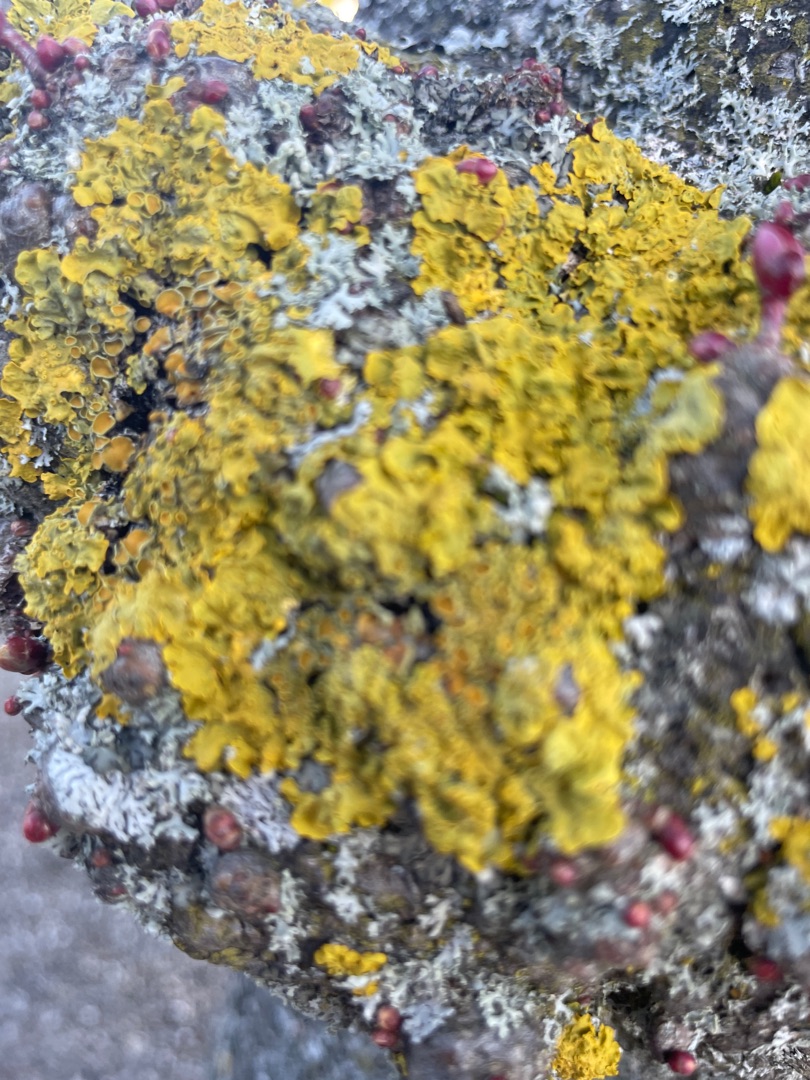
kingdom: Fungi
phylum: Ascomycota
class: Lecanoromycetes
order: Teloschistales
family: Teloschistaceae
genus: Xanthoria
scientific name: Xanthoria parietina
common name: Almindelig væggelav
